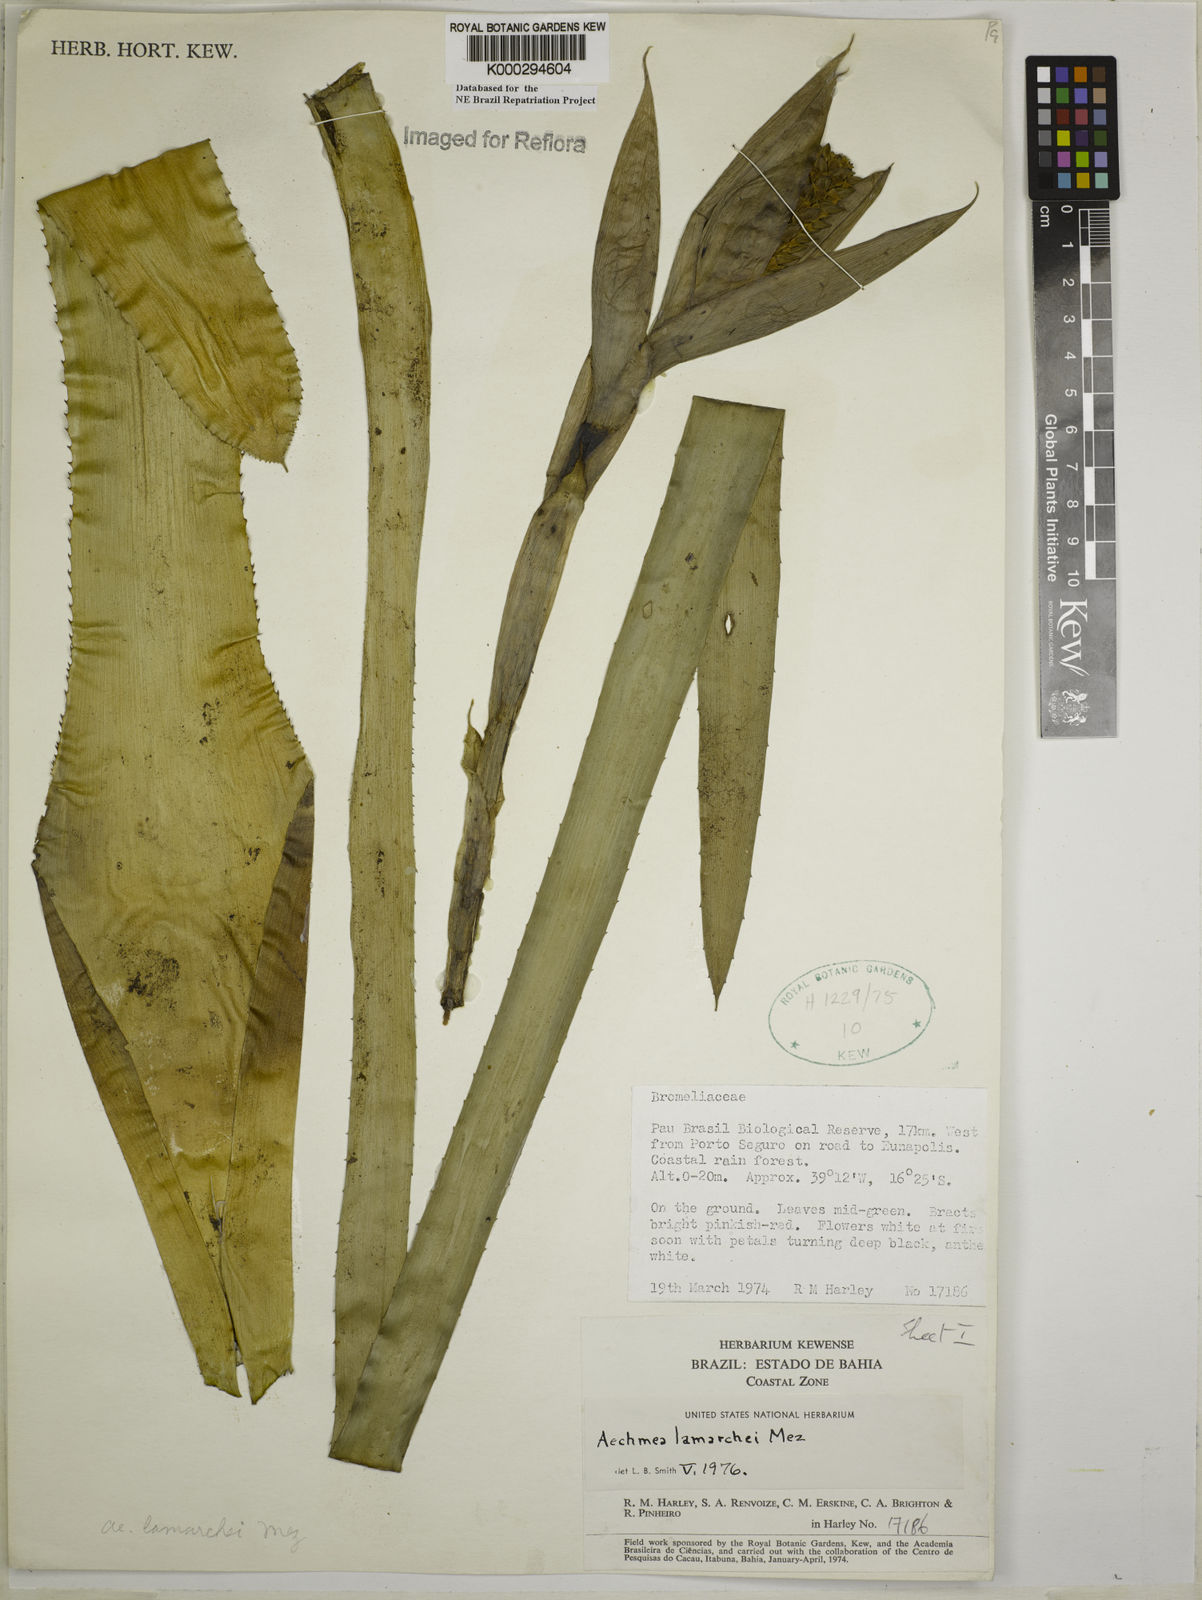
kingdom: Plantae
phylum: Tracheophyta
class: Liliopsida
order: Poales
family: Bromeliaceae
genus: Aechmea
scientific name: Aechmea lamarchei
